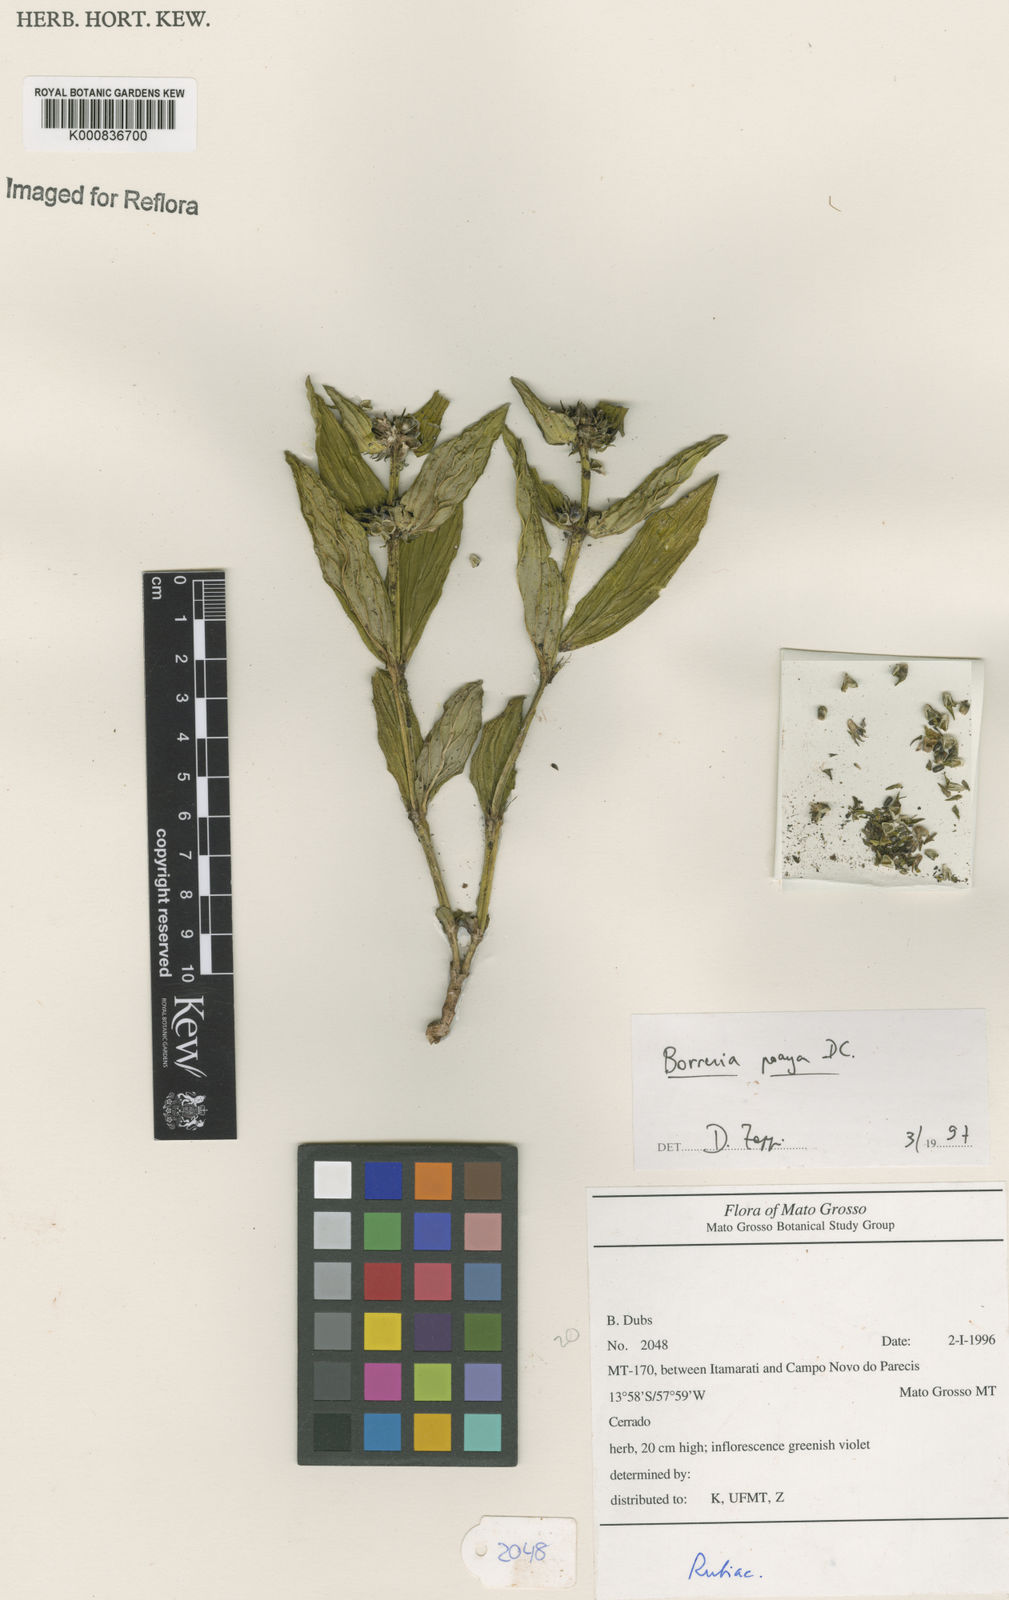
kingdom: Plantae
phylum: Tracheophyta
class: Magnoliopsida
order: Gentianales
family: Rubiaceae
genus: Spermacoce
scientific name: Spermacoce poaya
